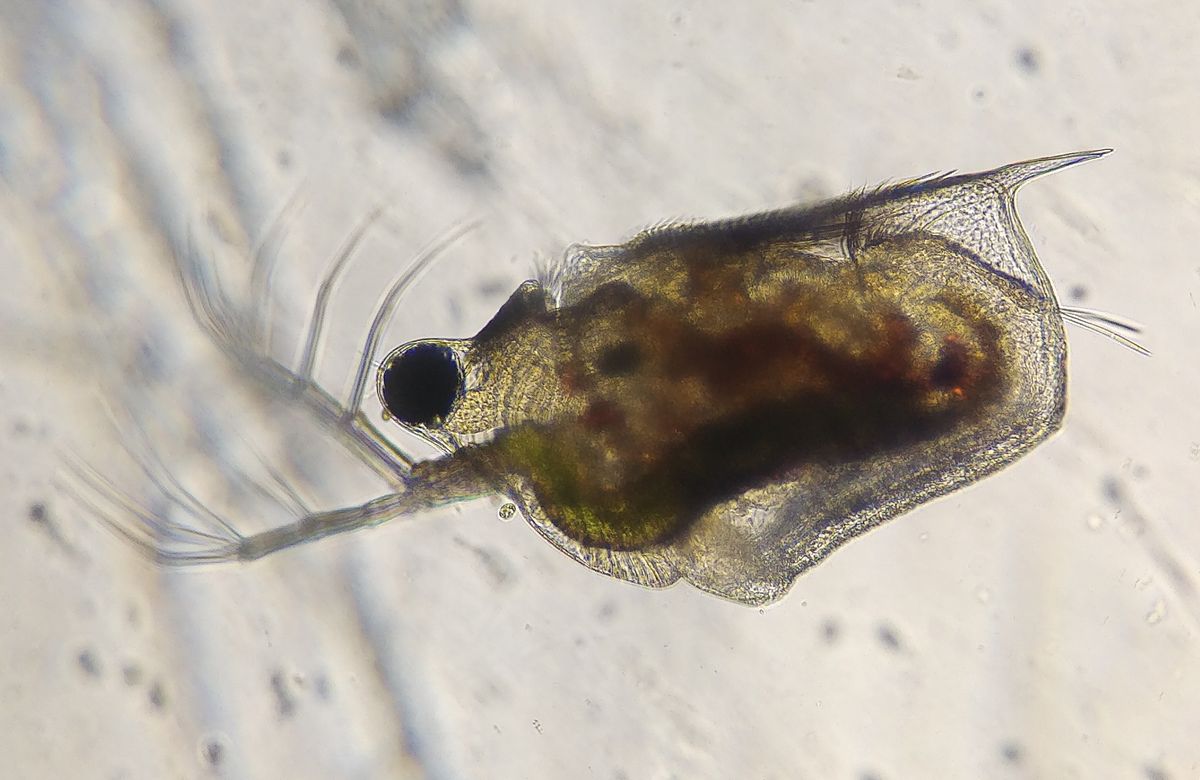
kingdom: Animalia
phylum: Arthropoda
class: Branchiopoda
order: Diplostraca
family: Daphniidae
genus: Scapholeberis
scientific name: Scapholeberis mucronata
